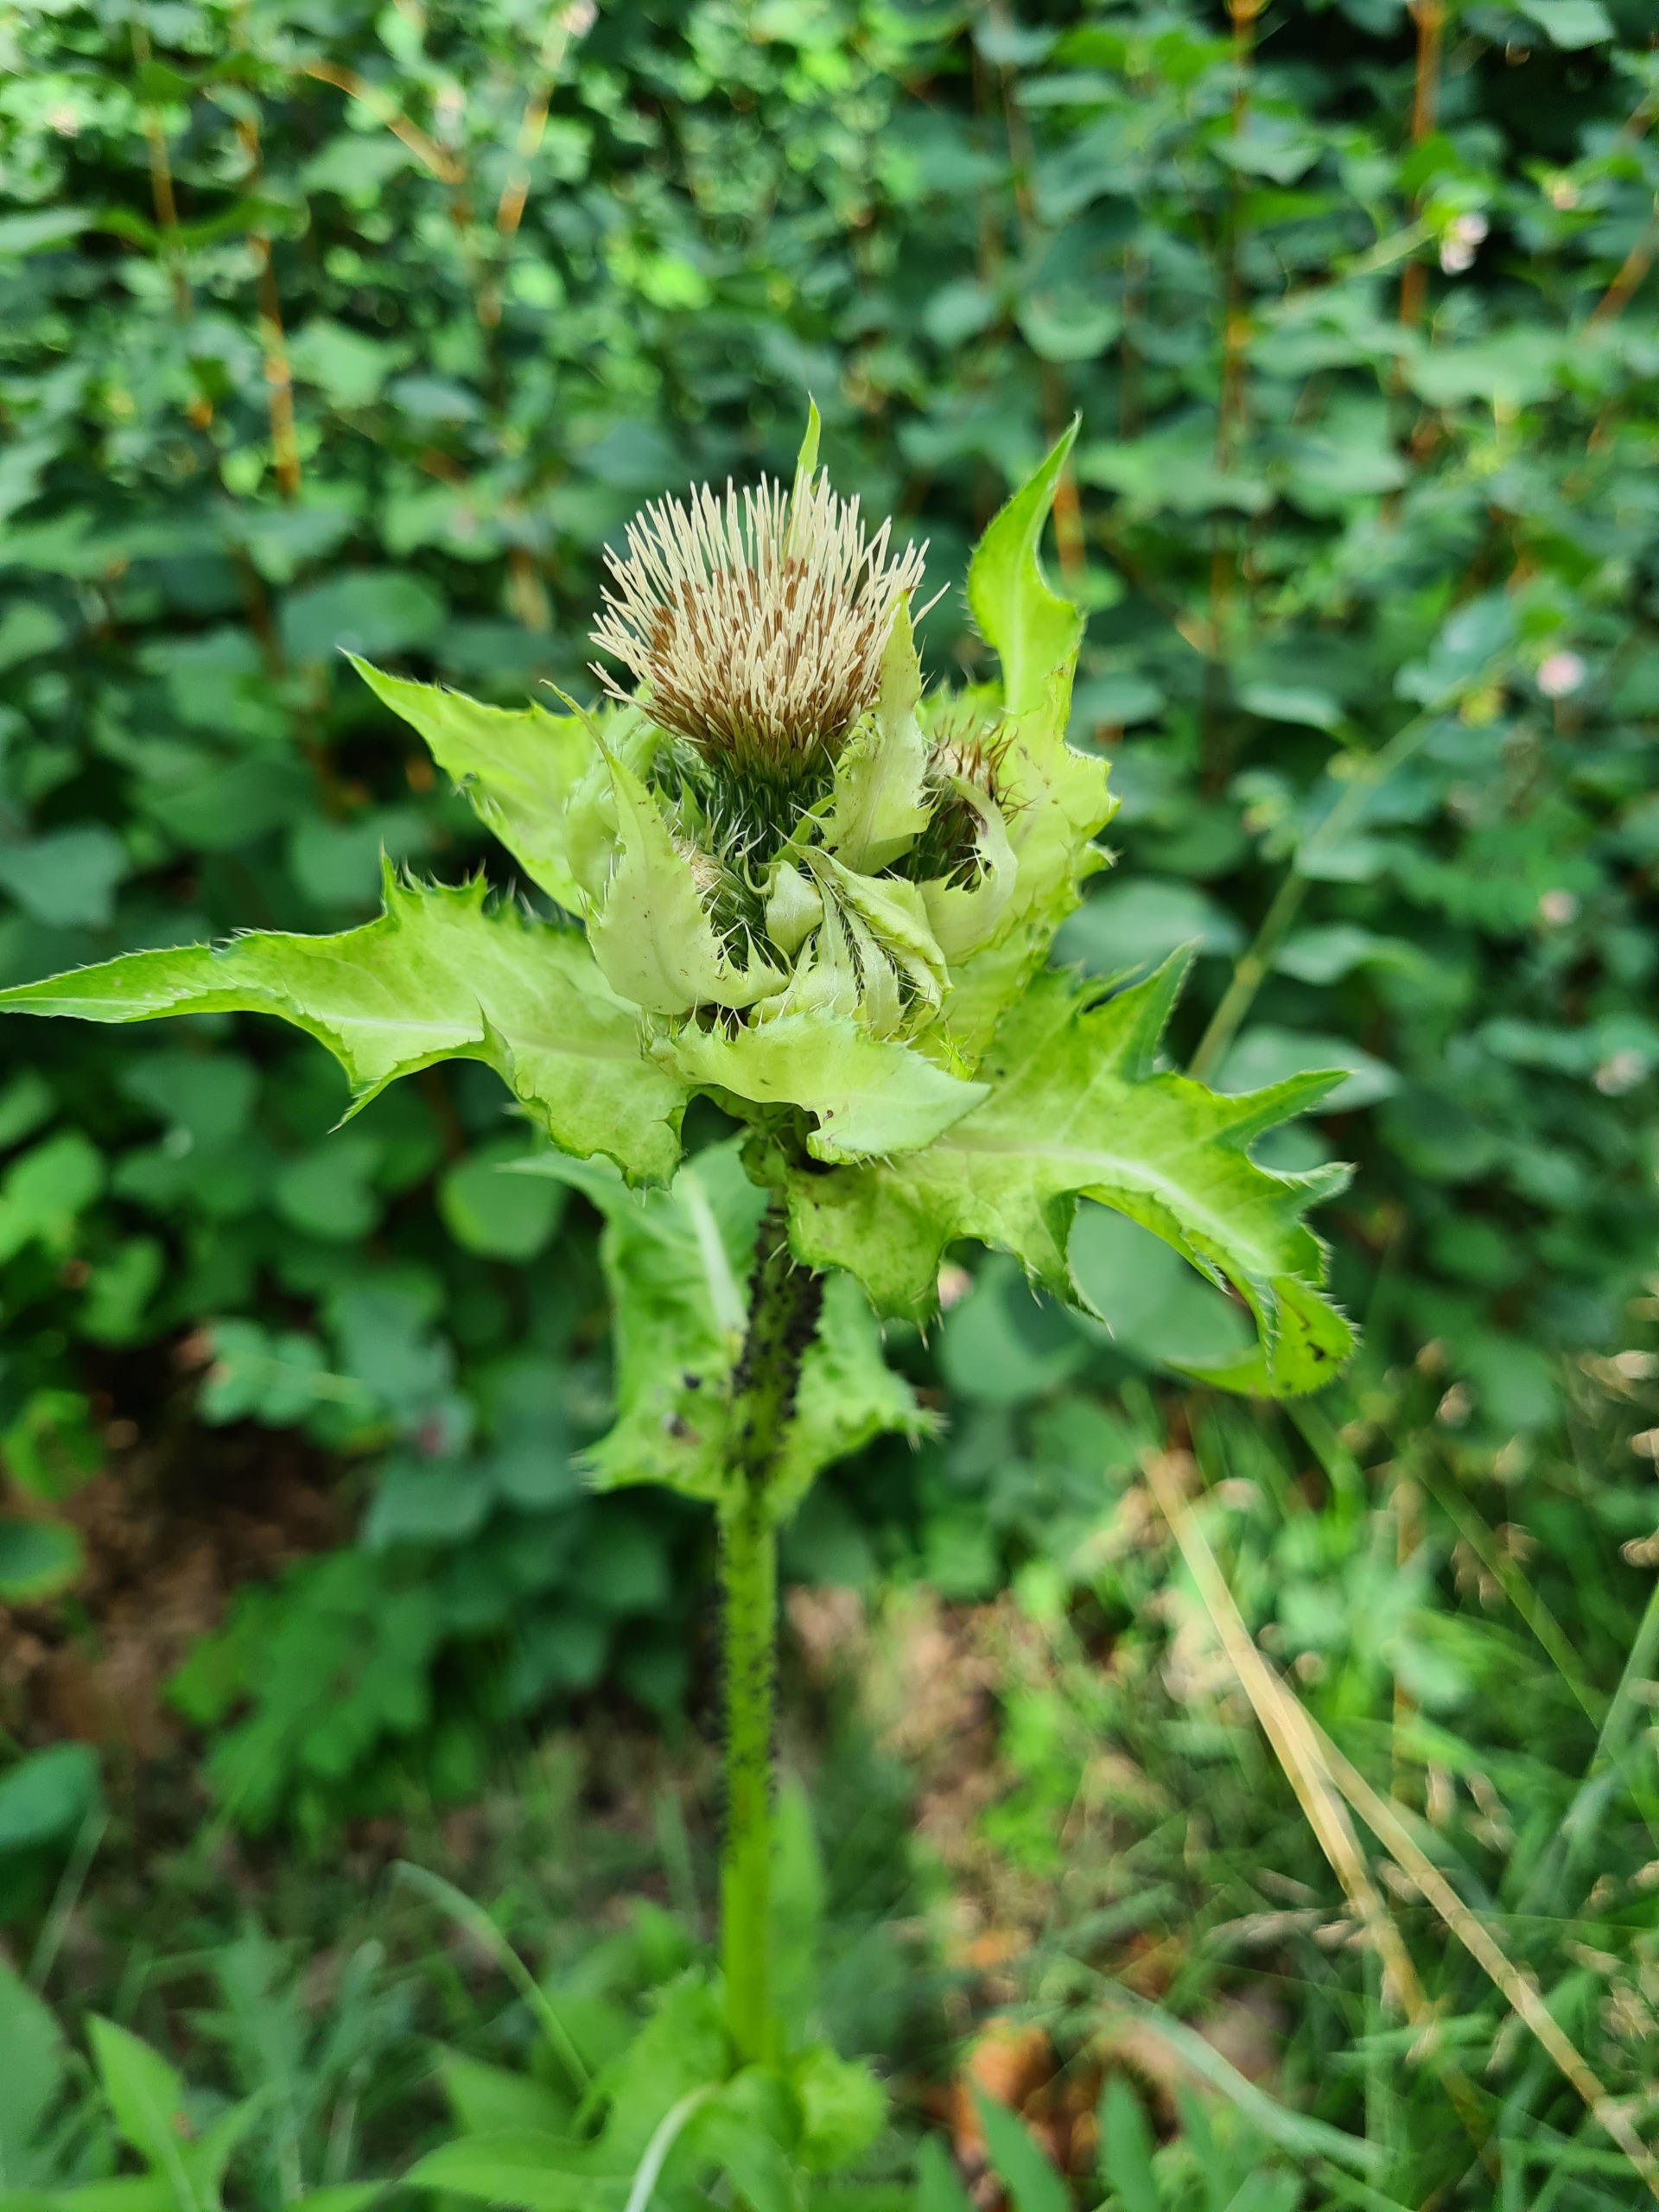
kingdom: Plantae
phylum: Tracheophyta
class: Magnoliopsida
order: Asterales
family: Asteraceae
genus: Cirsium
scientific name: Cirsium oleraceum
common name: Kål-tidsel
